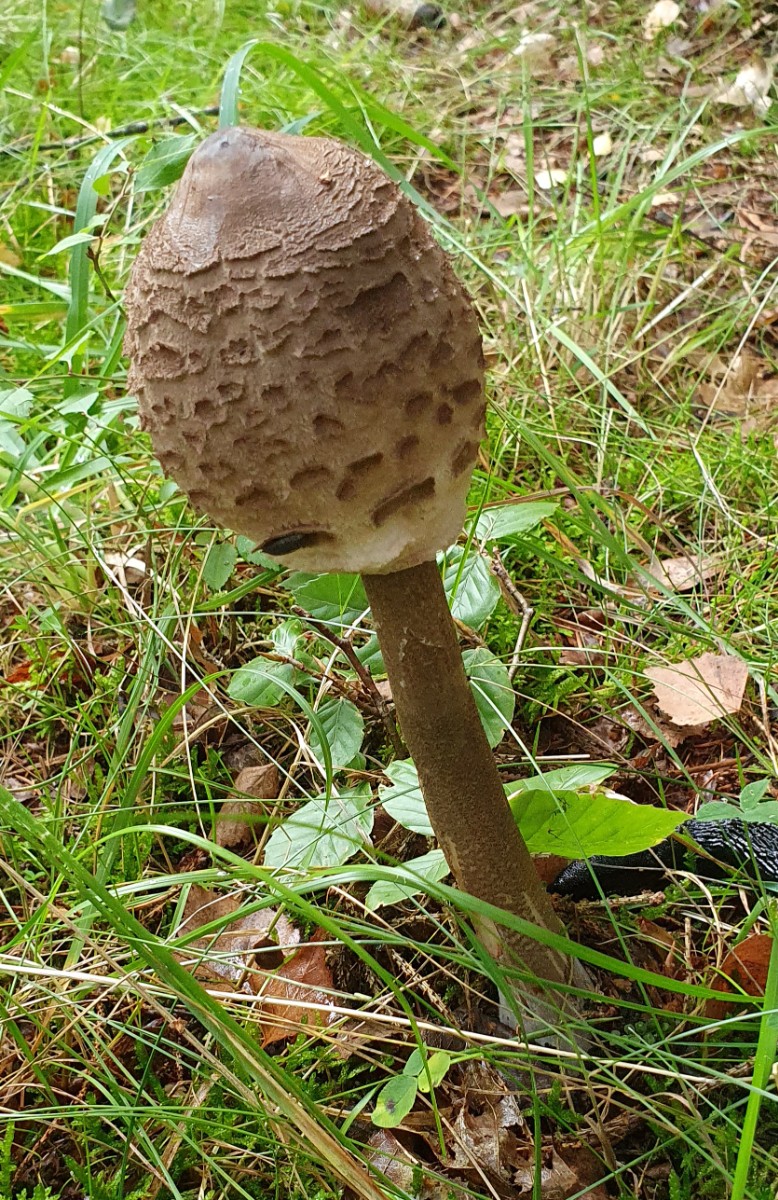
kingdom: Fungi
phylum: Basidiomycota
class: Agaricomycetes
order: Agaricales
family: Agaricaceae
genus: Macrolepiota
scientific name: Macrolepiota procera
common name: stor kæmpeparasolhat
